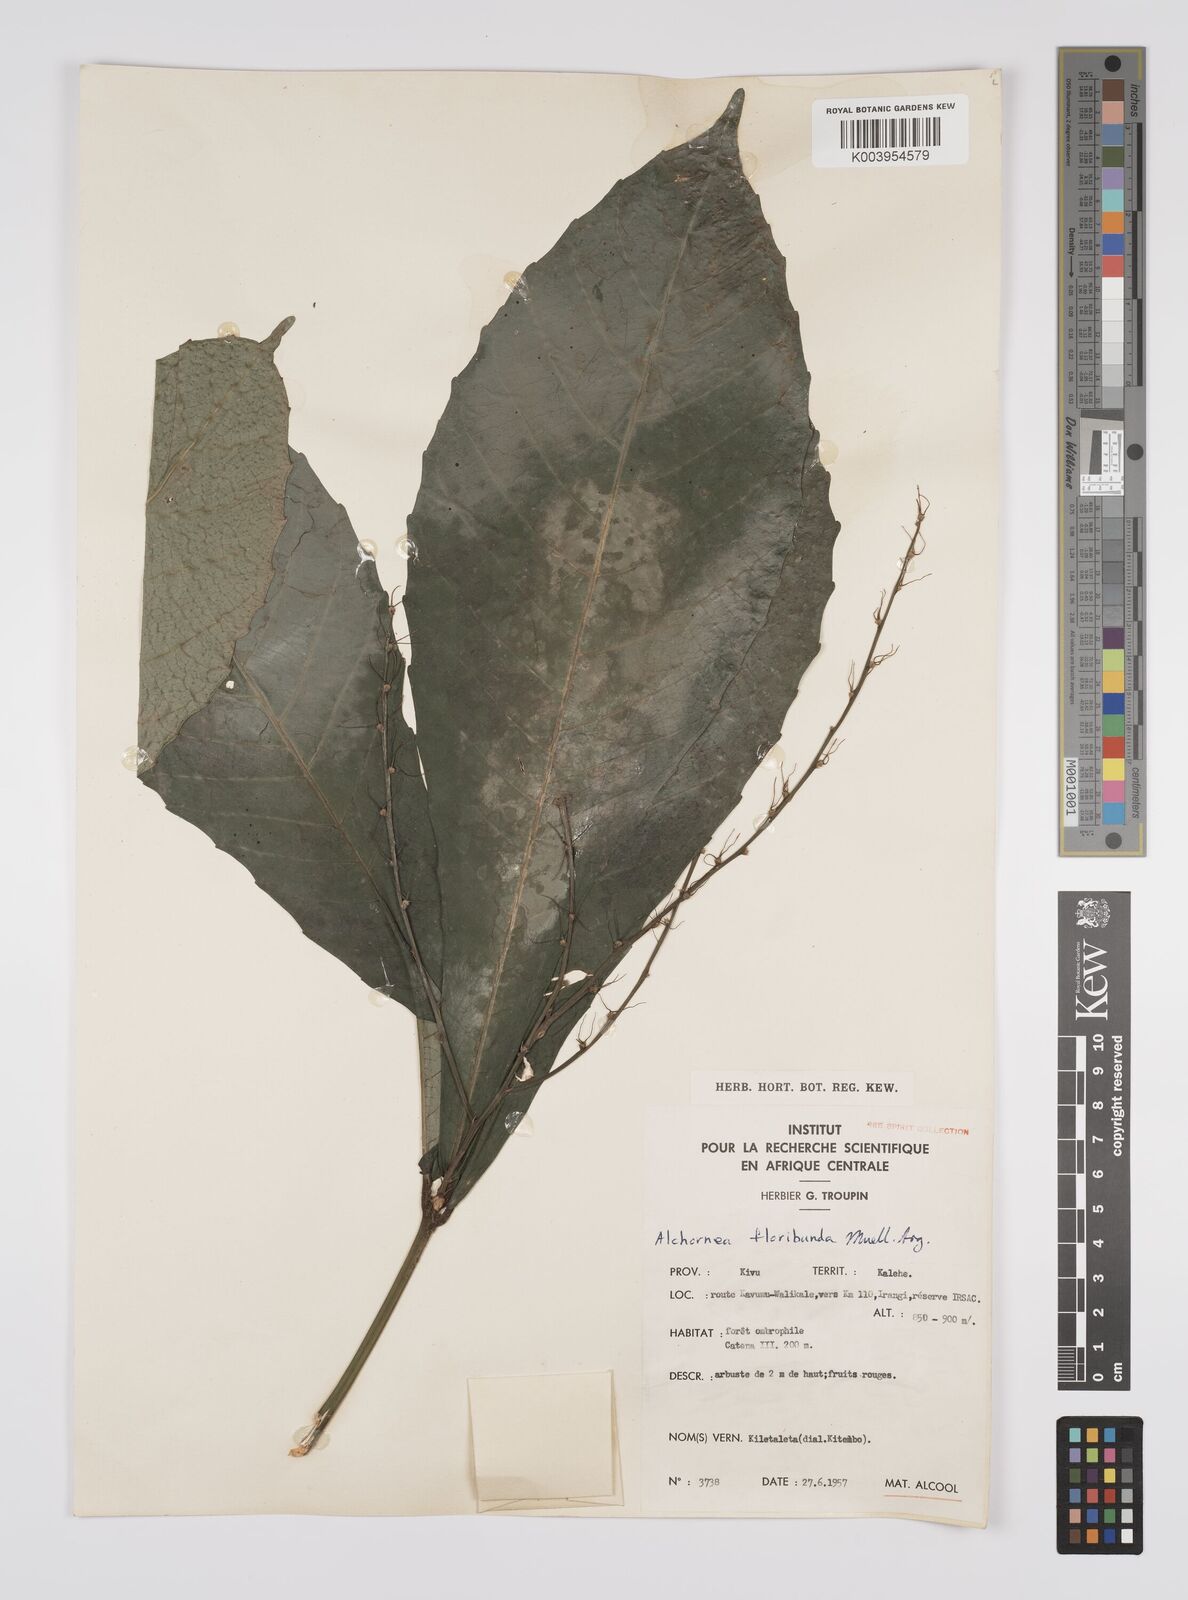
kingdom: Plantae
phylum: Tracheophyta
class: Magnoliopsida
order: Malpighiales
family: Euphorbiaceae
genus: Alchornea
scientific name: Alchornea floribunda
